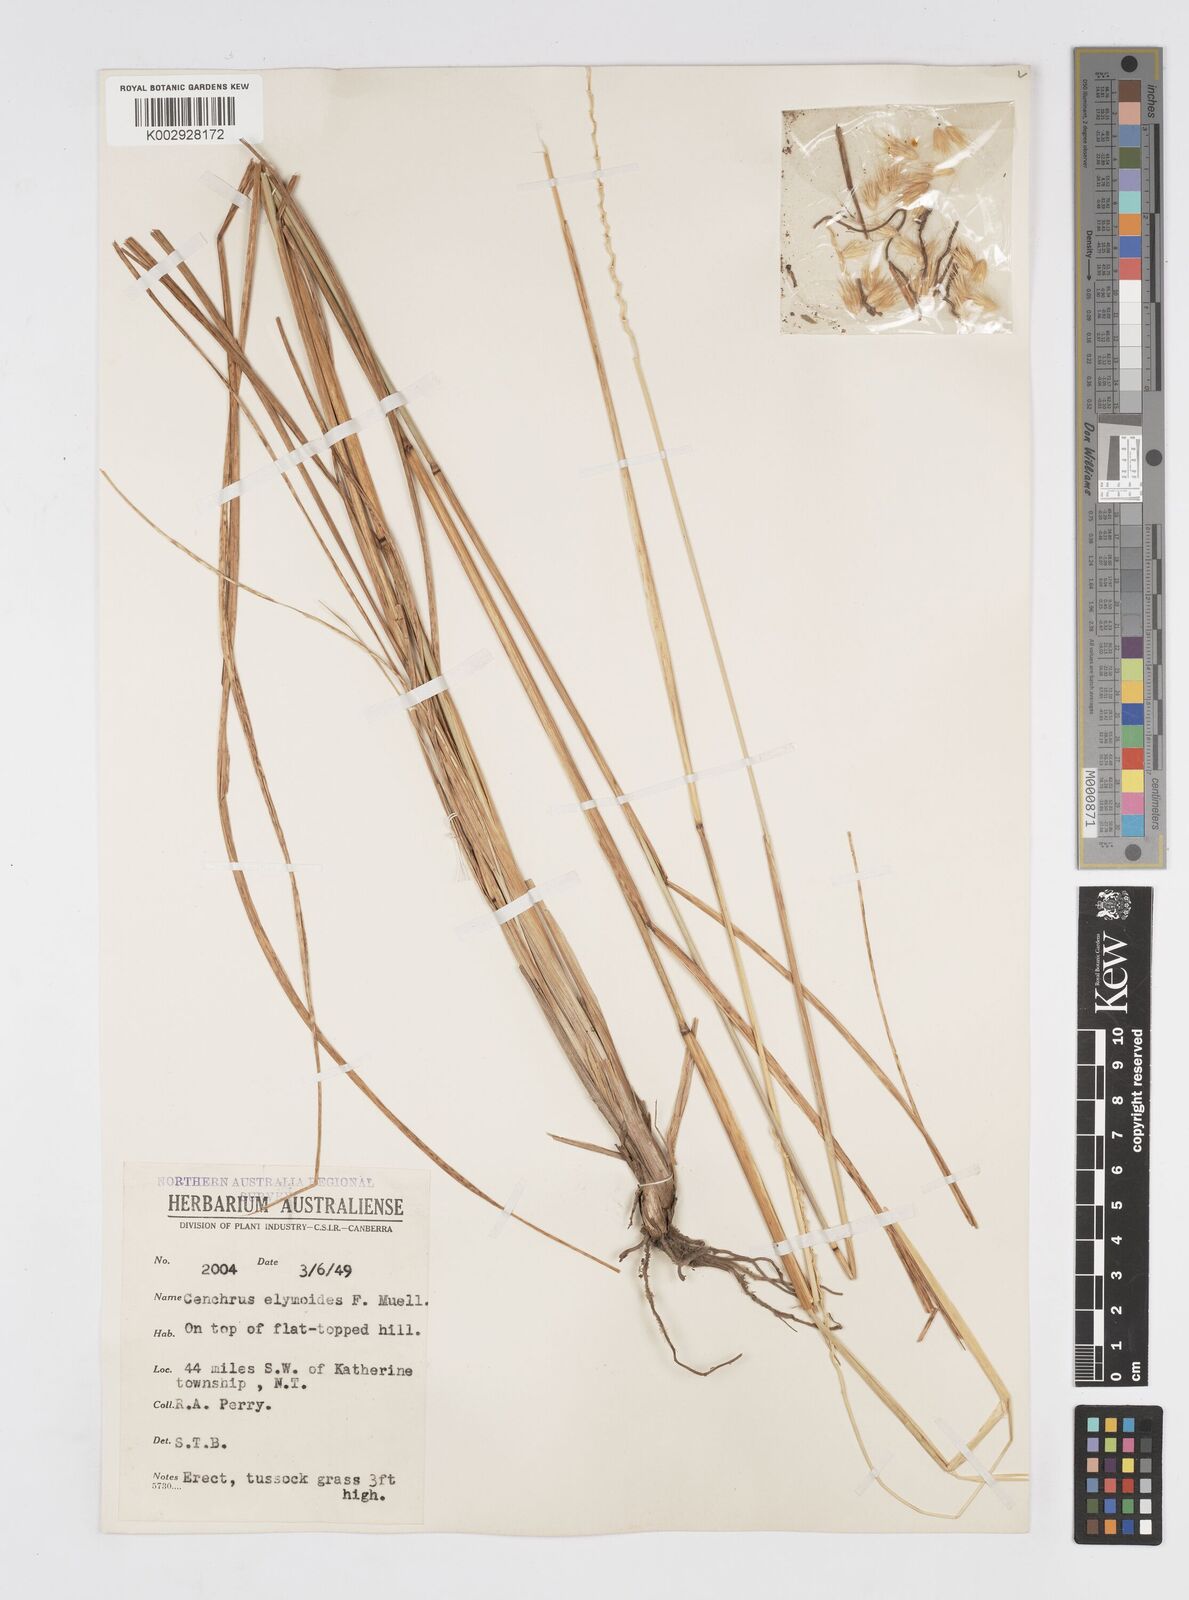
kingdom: Plantae
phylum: Tracheophyta
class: Liliopsida
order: Poales
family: Poaceae
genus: Cenchrus
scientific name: Cenchrus elymoides
